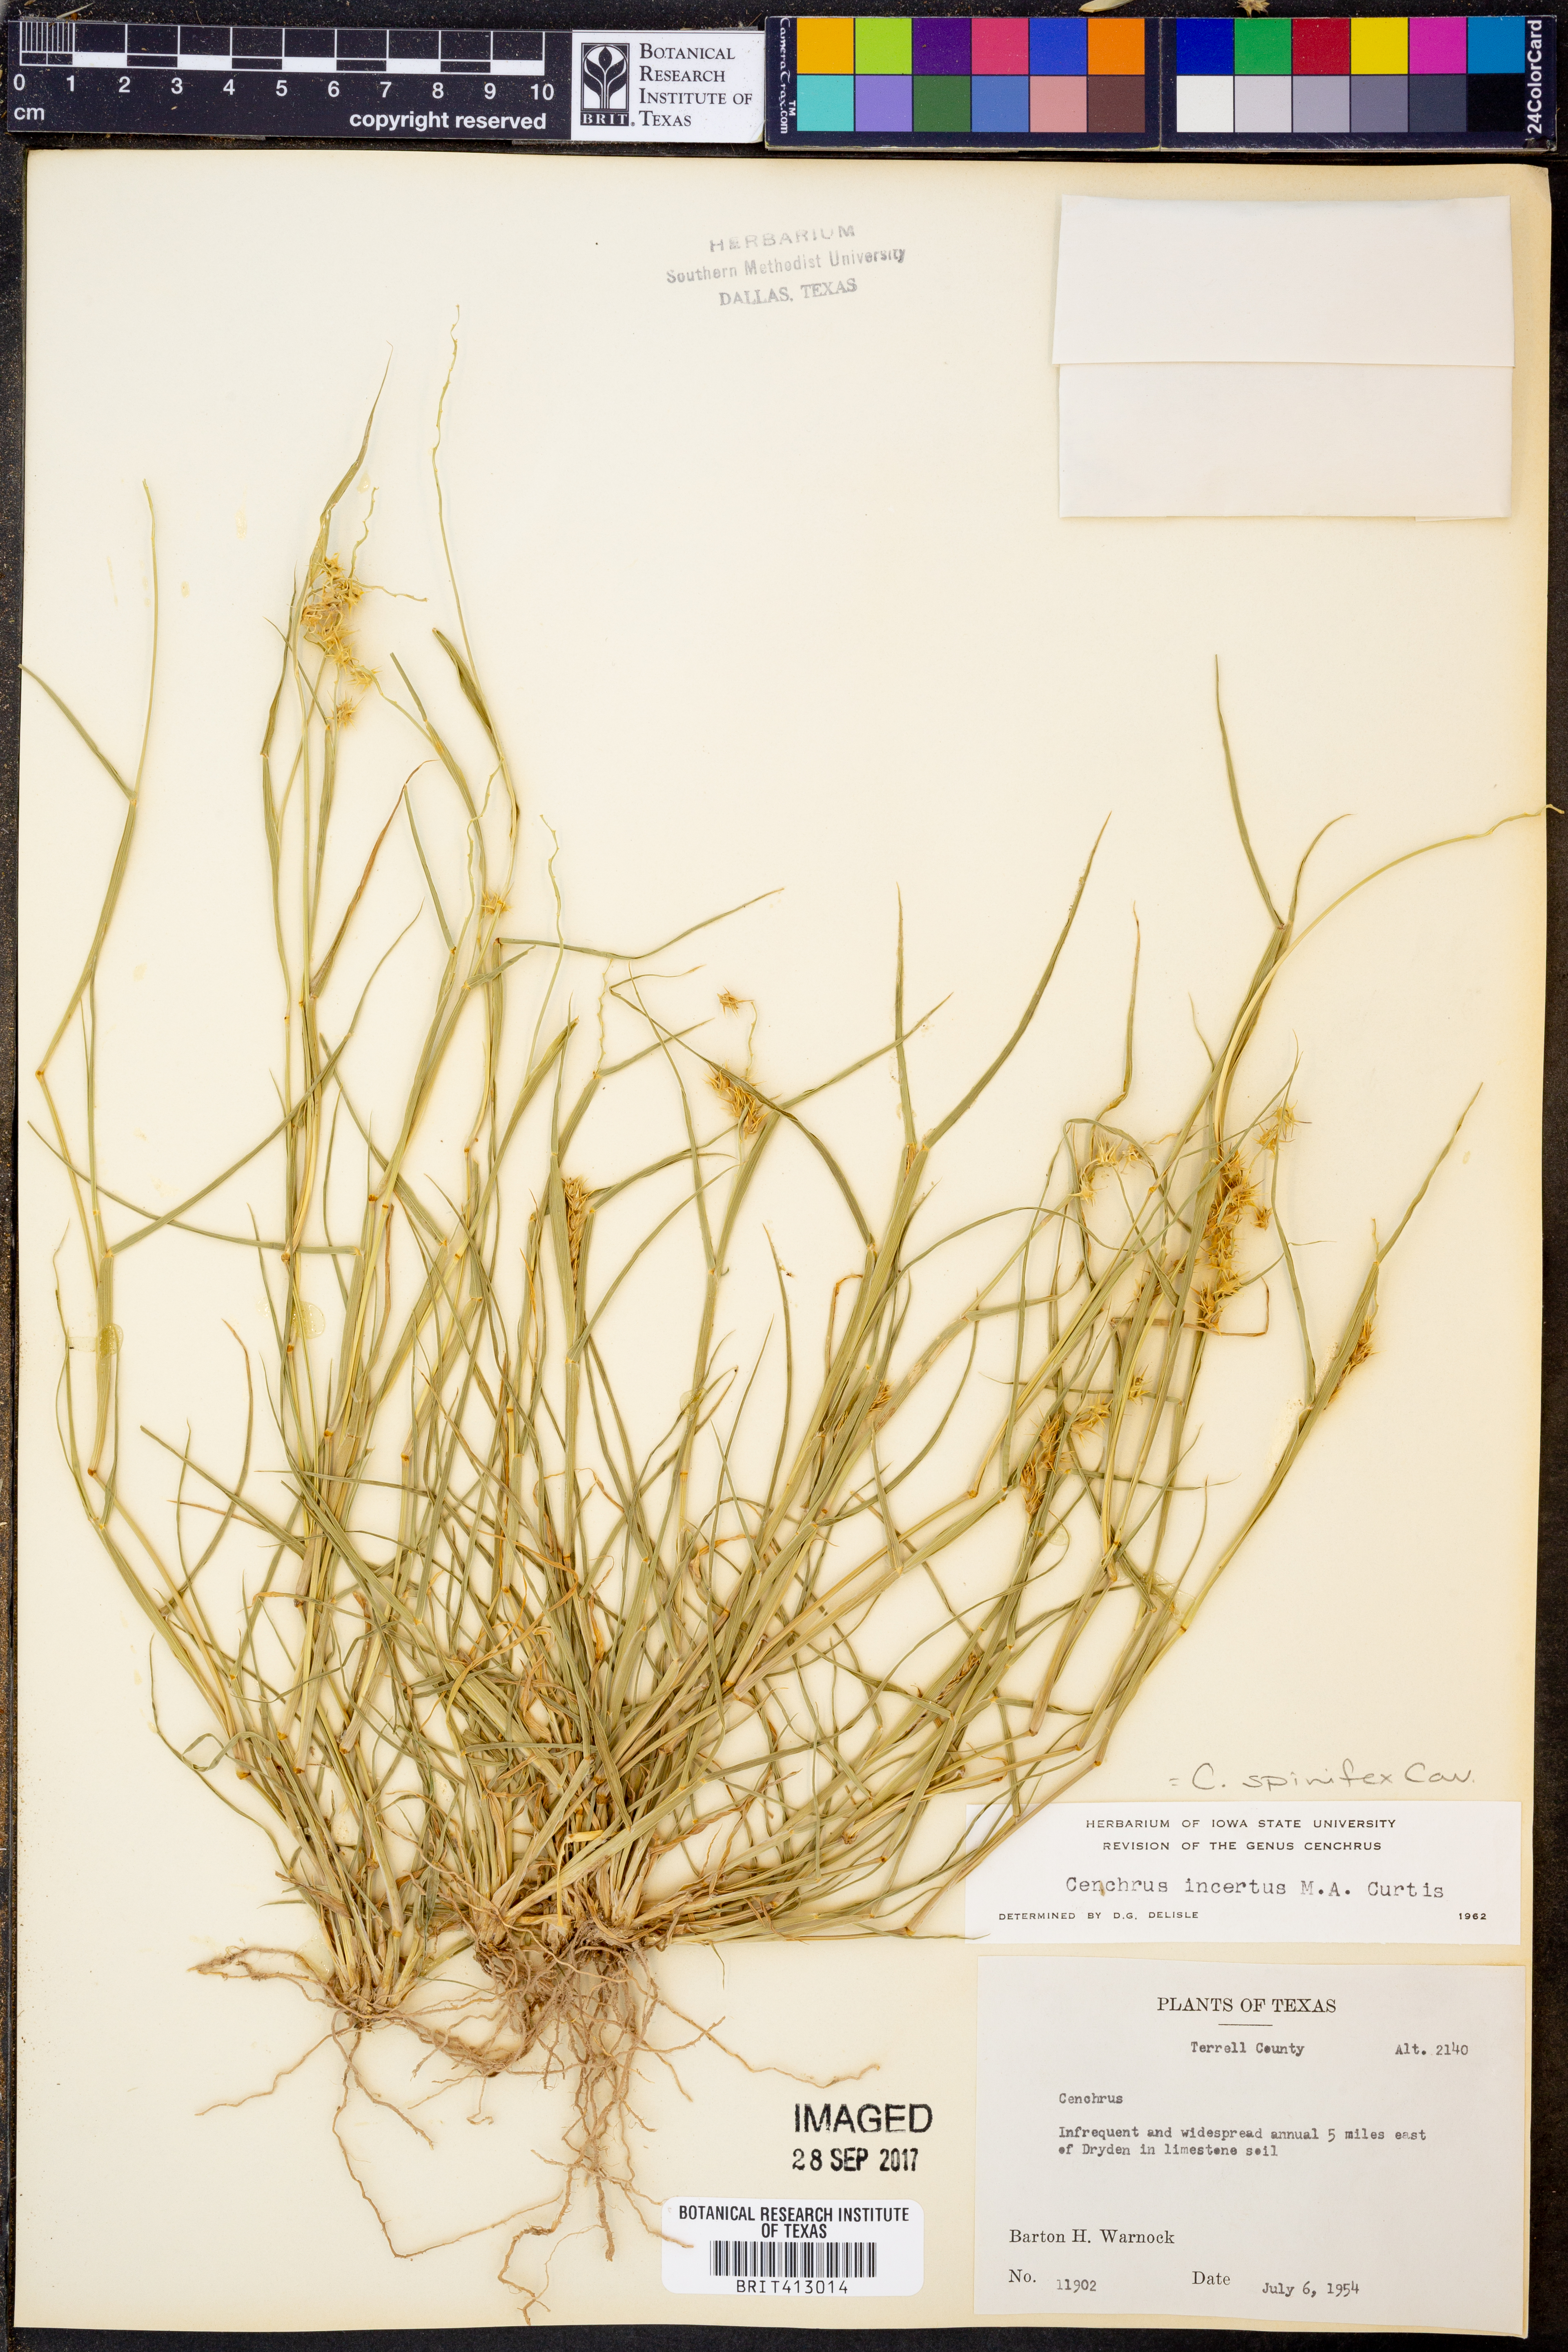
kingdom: Plantae
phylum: Tracheophyta
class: Liliopsida
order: Poales
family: Poaceae
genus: Cenchrus
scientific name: Cenchrus spinifex
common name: Coast sandbur
